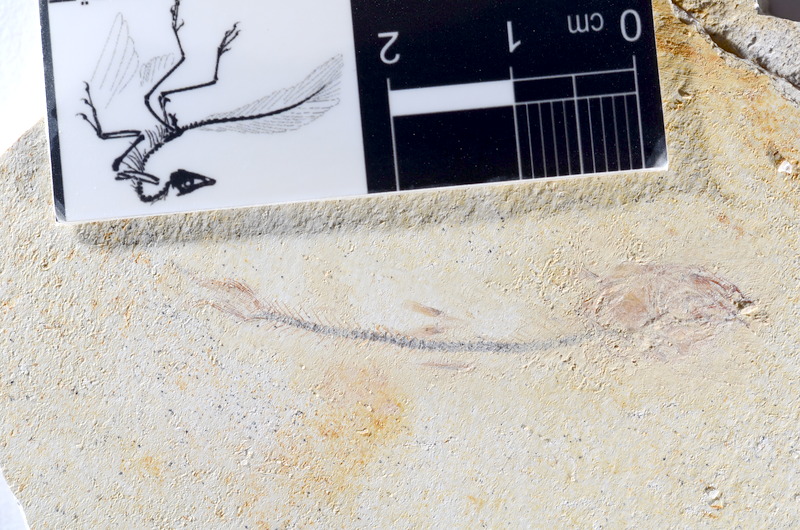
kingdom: Animalia
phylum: Chordata
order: Salmoniformes
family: Orthogonikleithridae
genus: Orthogonikleithrus
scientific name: Orthogonikleithrus hoelli
